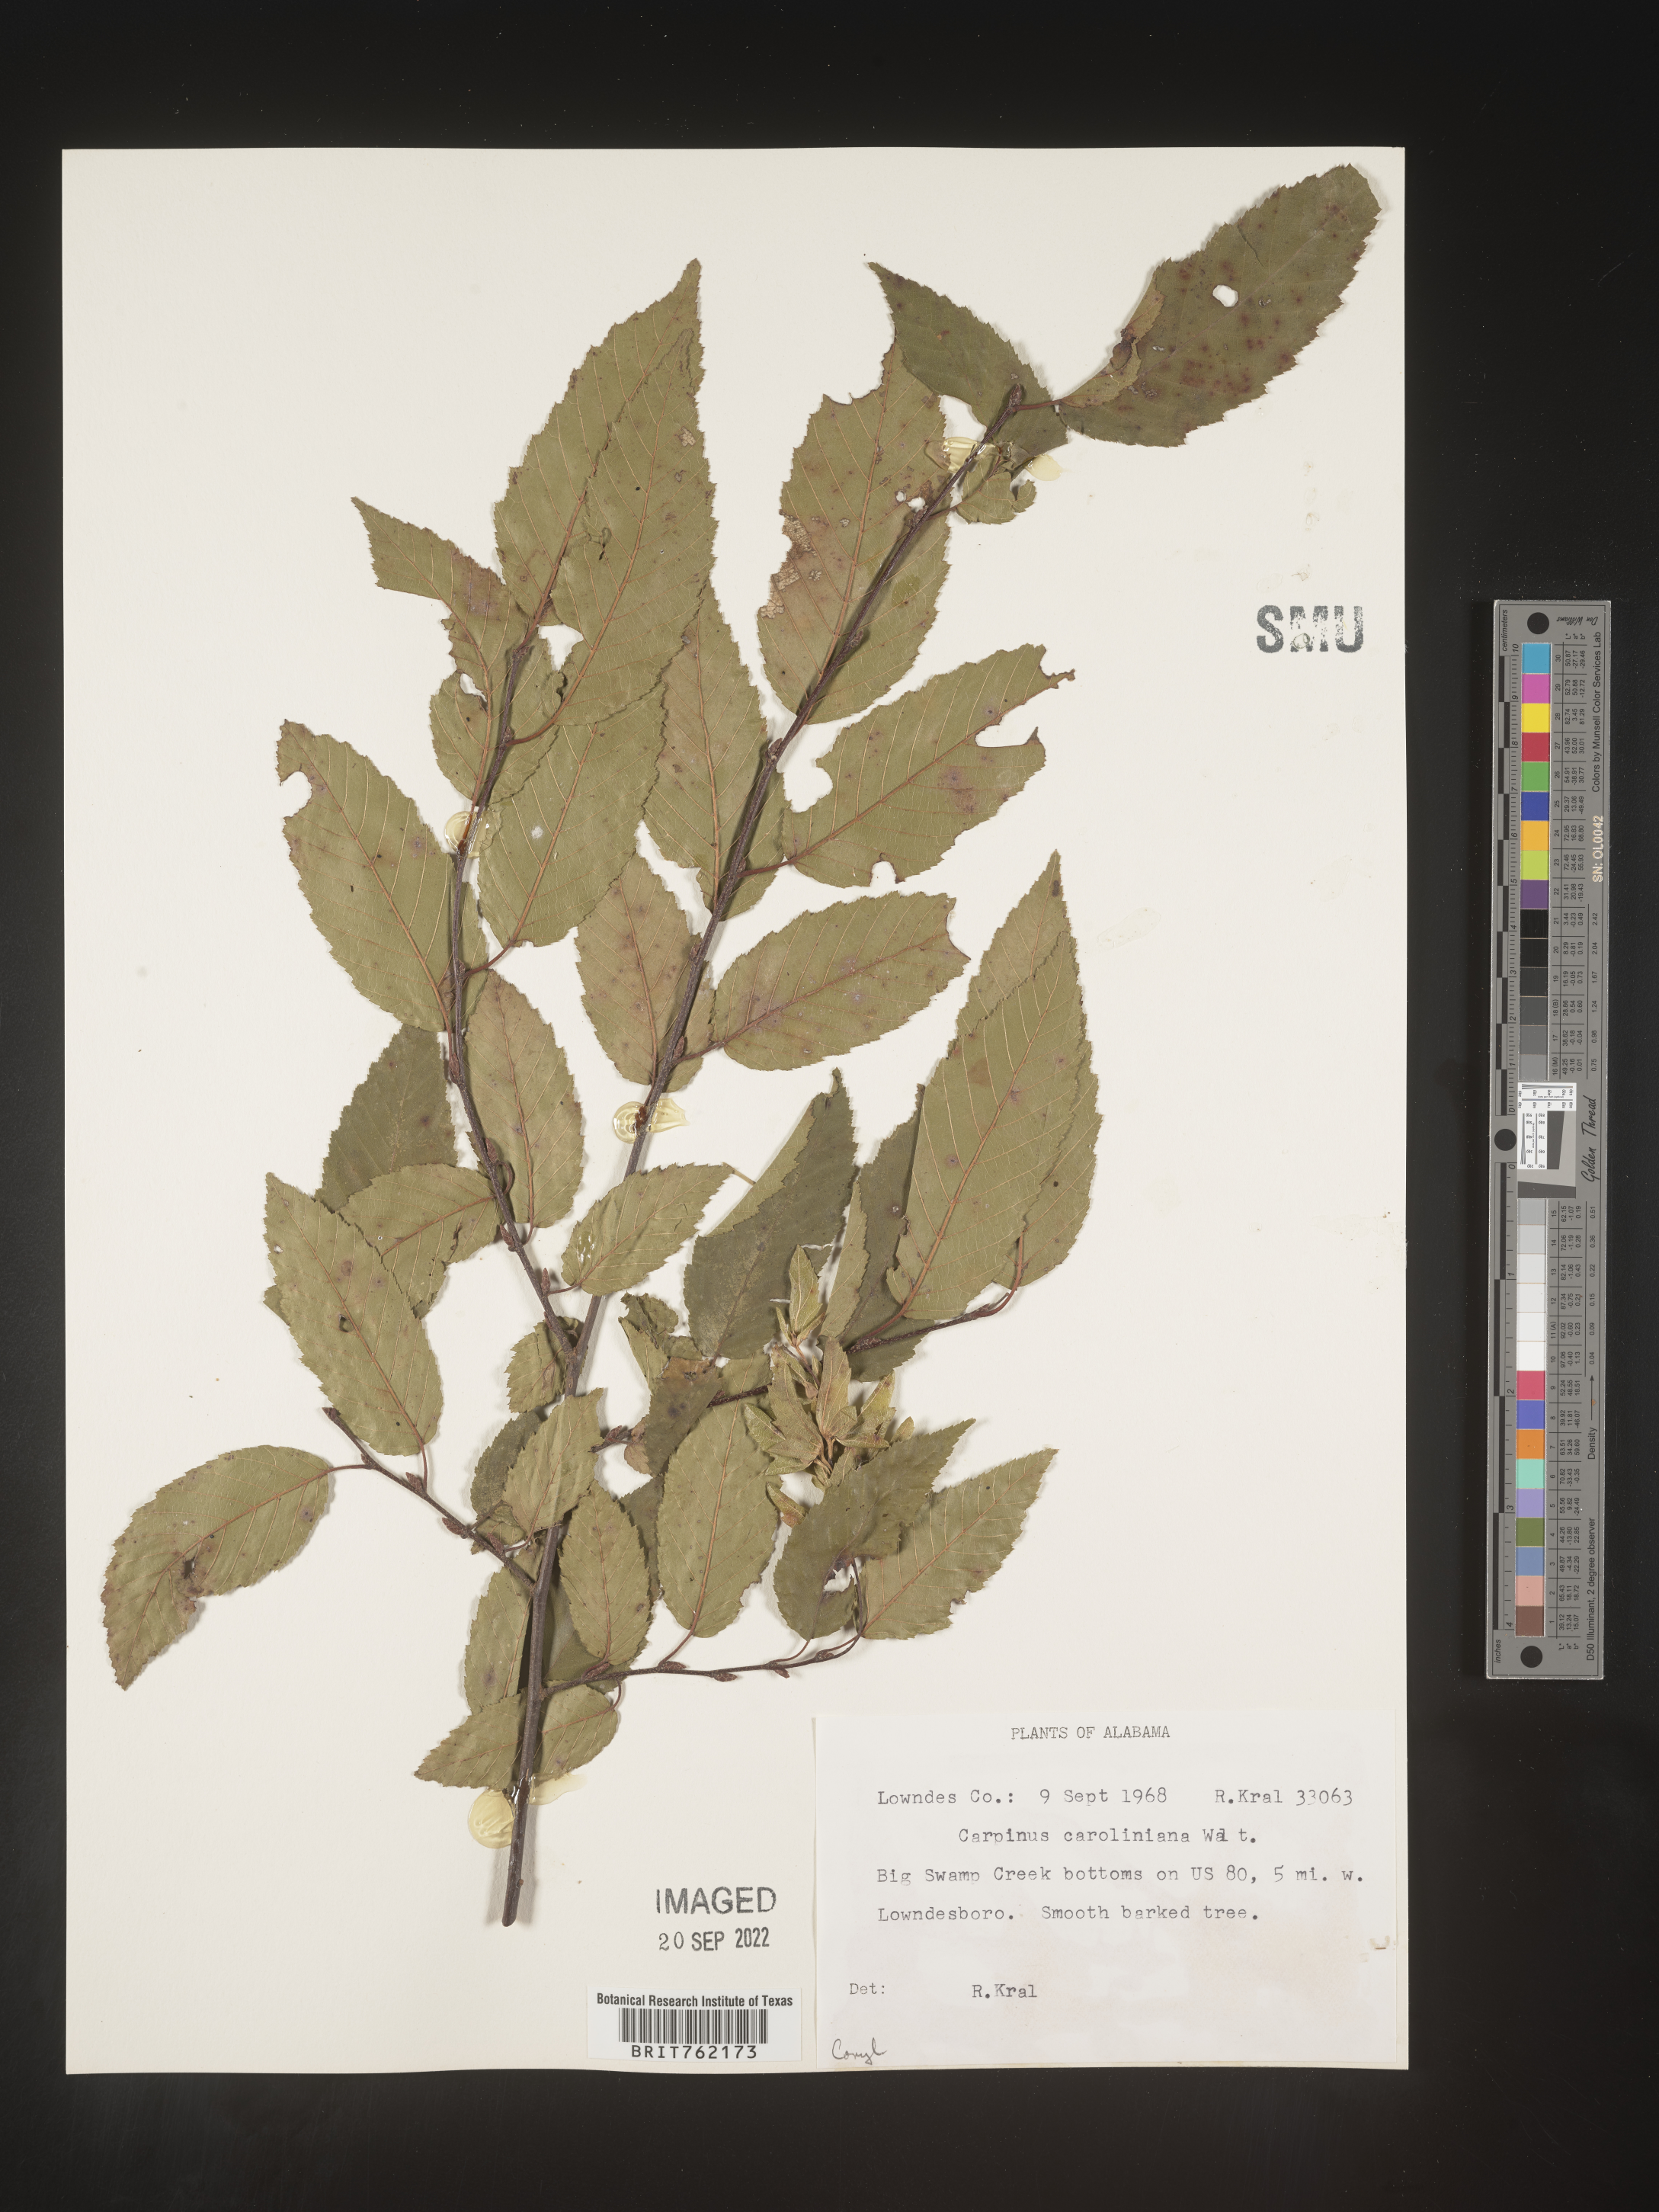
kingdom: Plantae
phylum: Tracheophyta
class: Magnoliopsida
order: Fagales
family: Betulaceae
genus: Carpinus
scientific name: Carpinus caroliniana
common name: American hornbeam
